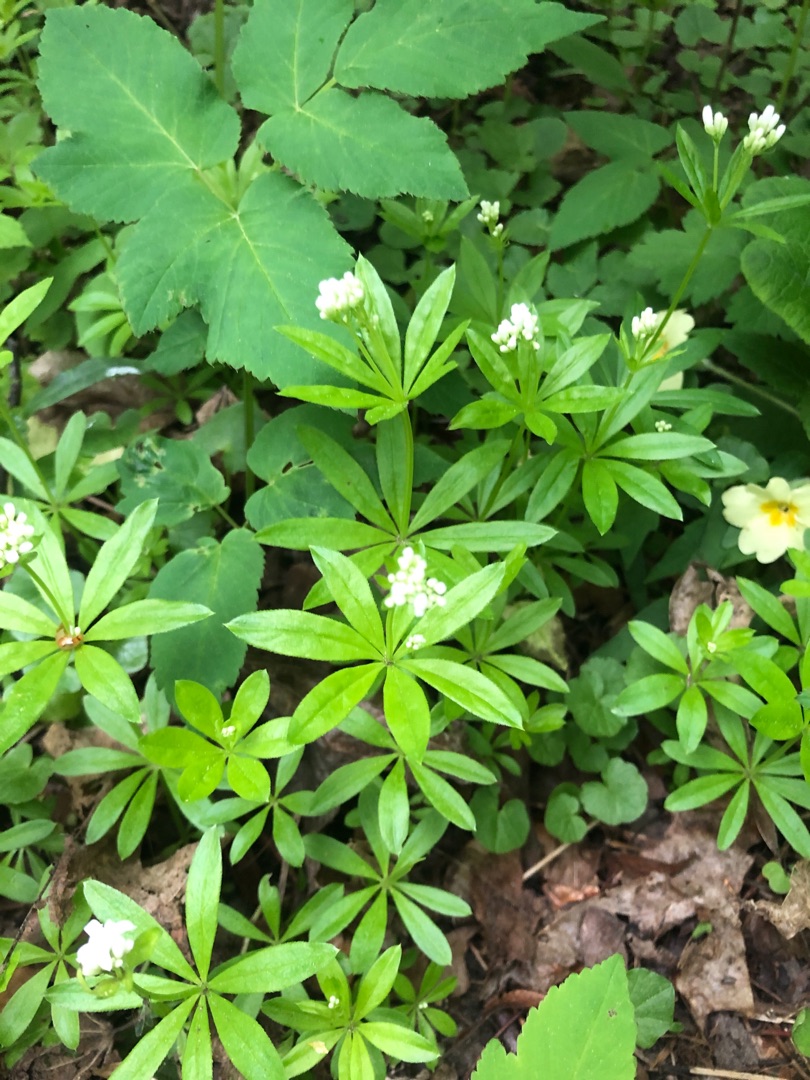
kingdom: Plantae
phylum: Tracheophyta
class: Magnoliopsida
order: Gentianales
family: Rubiaceae
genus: Galium
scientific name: Galium odoratum
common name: Skovmærke
